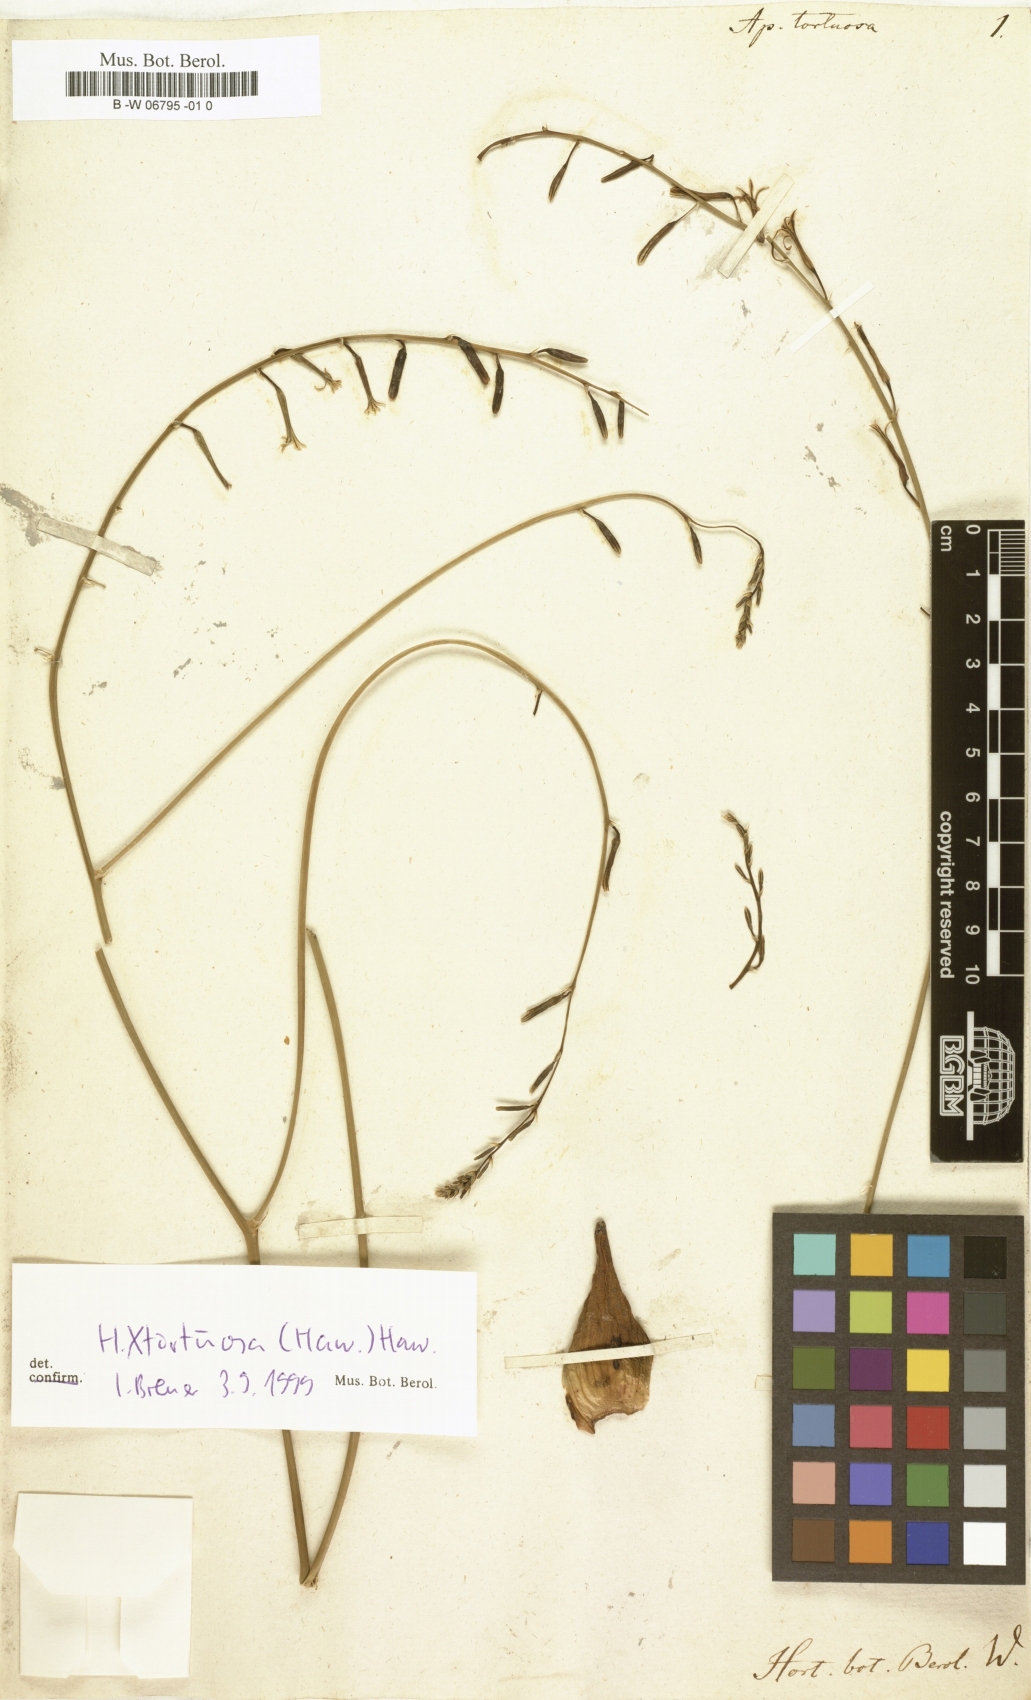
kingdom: Plantae
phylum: Tracheophyta
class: Liliopsida
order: Asparagales
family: Asphodelaceae
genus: Haworthiopsis
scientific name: Haworthiopsis viscosa
